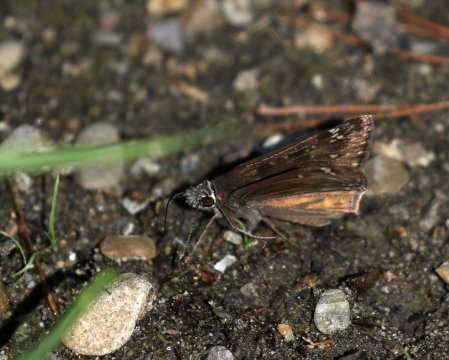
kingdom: Animalia
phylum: Arthropoda
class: Insecta
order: Lepidoptera
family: Hesperiidae
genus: Gesta
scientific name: Gesta
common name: Horace's Duskywing
